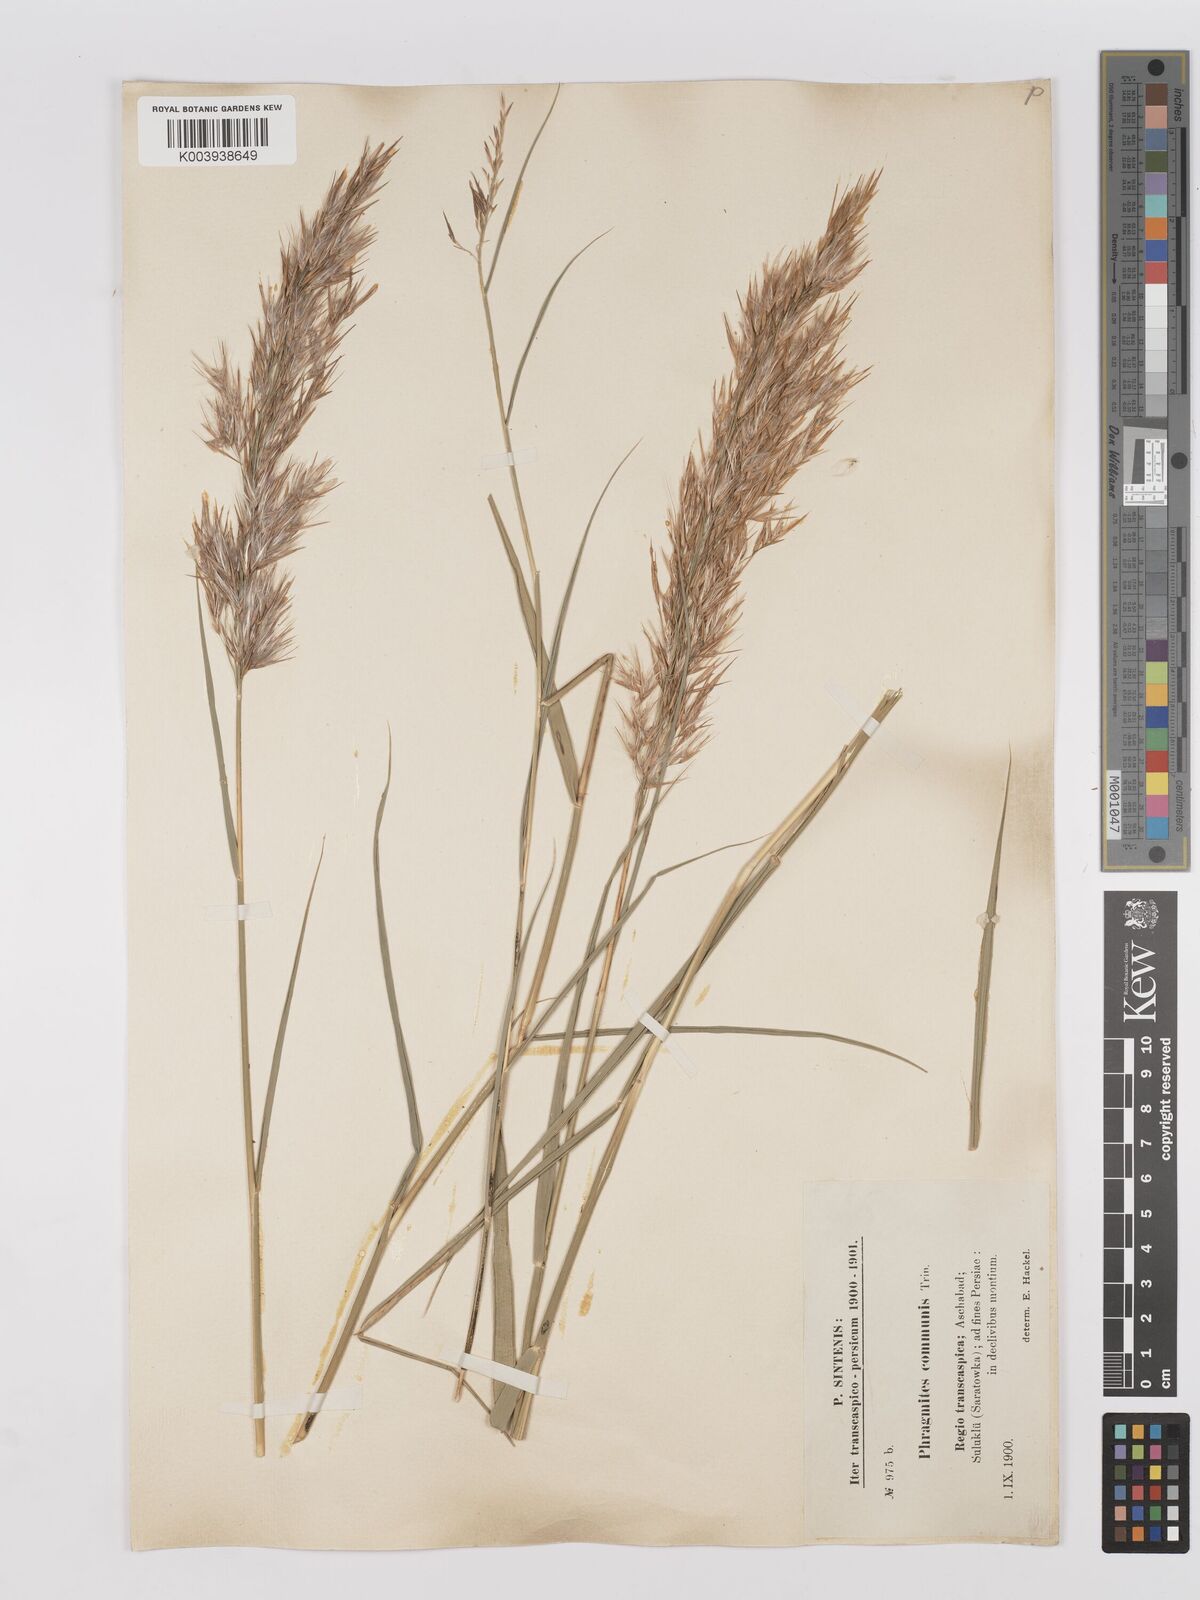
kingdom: Plantae
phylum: Tracheophyta
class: Liliopsida
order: Poales
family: Poaceae
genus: Phragmites
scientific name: Phragmites australis
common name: Common reed
